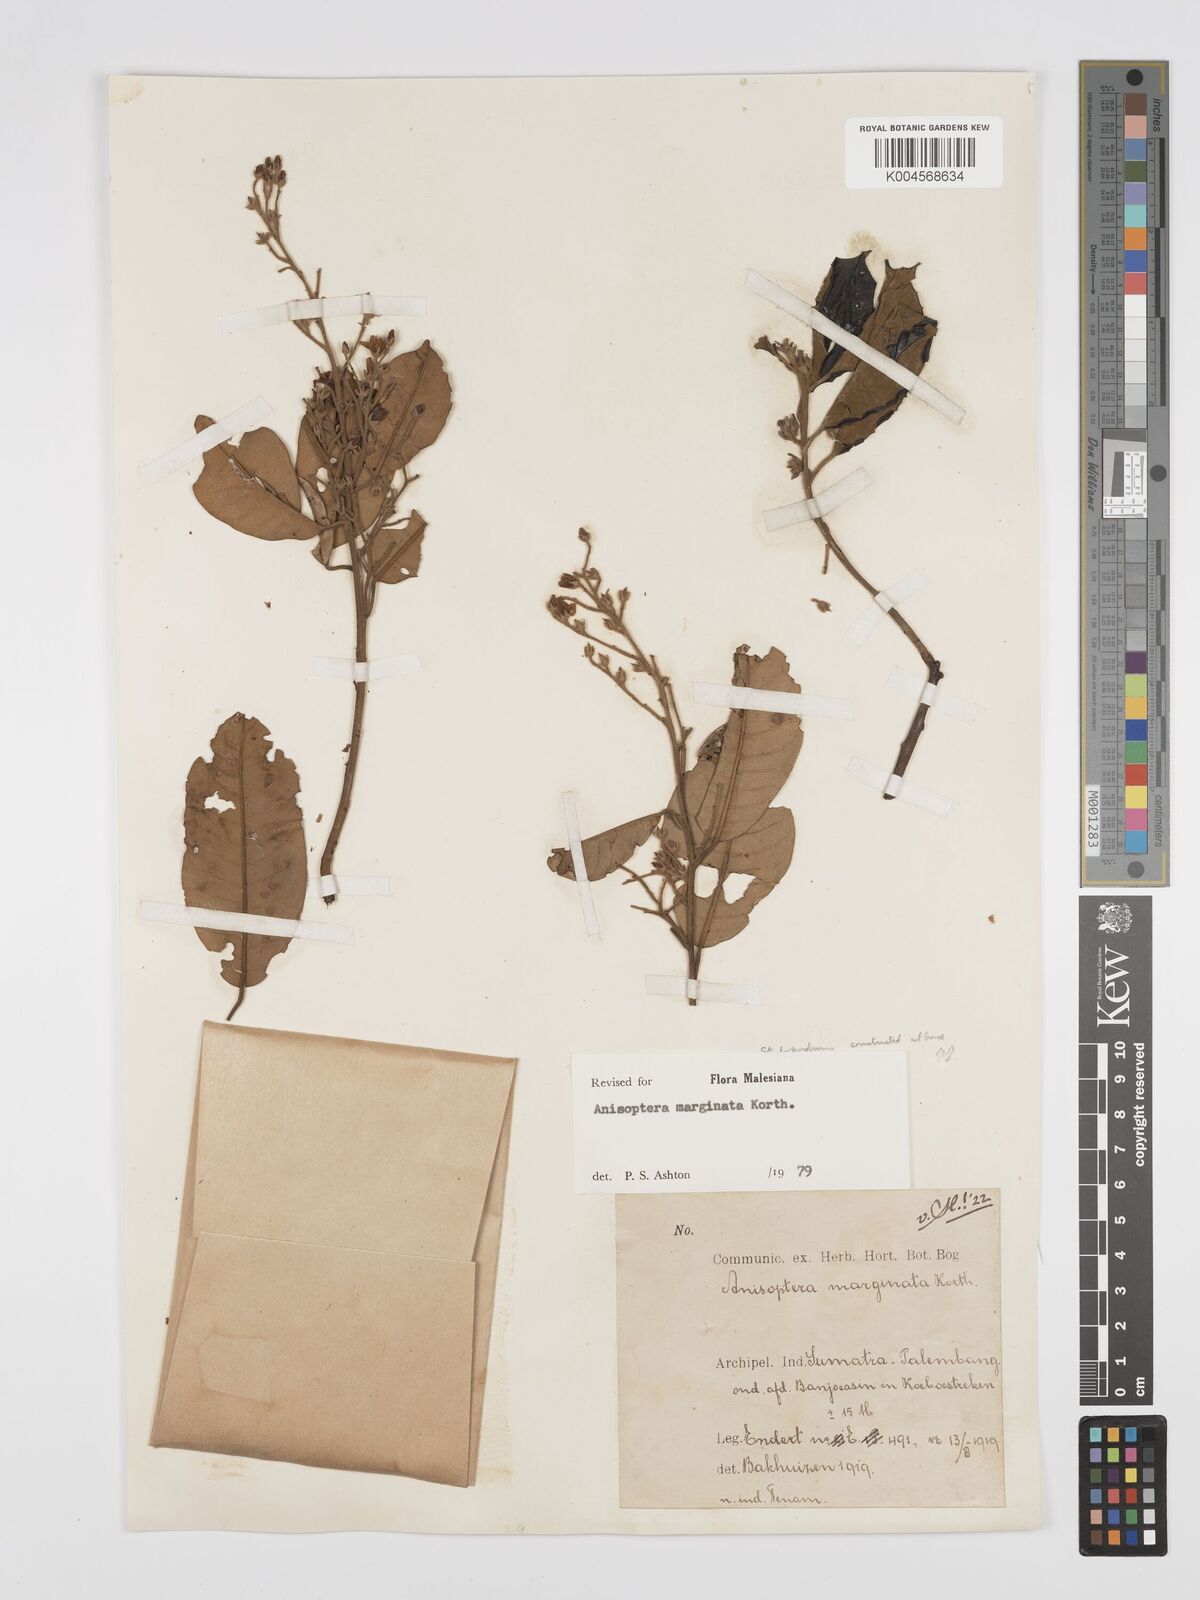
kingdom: Plantae
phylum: Tracheophyta
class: Magnoliopsida
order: Malvales
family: Dipterocarpaceae
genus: Anisoptera
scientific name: Anisoptera marginata
